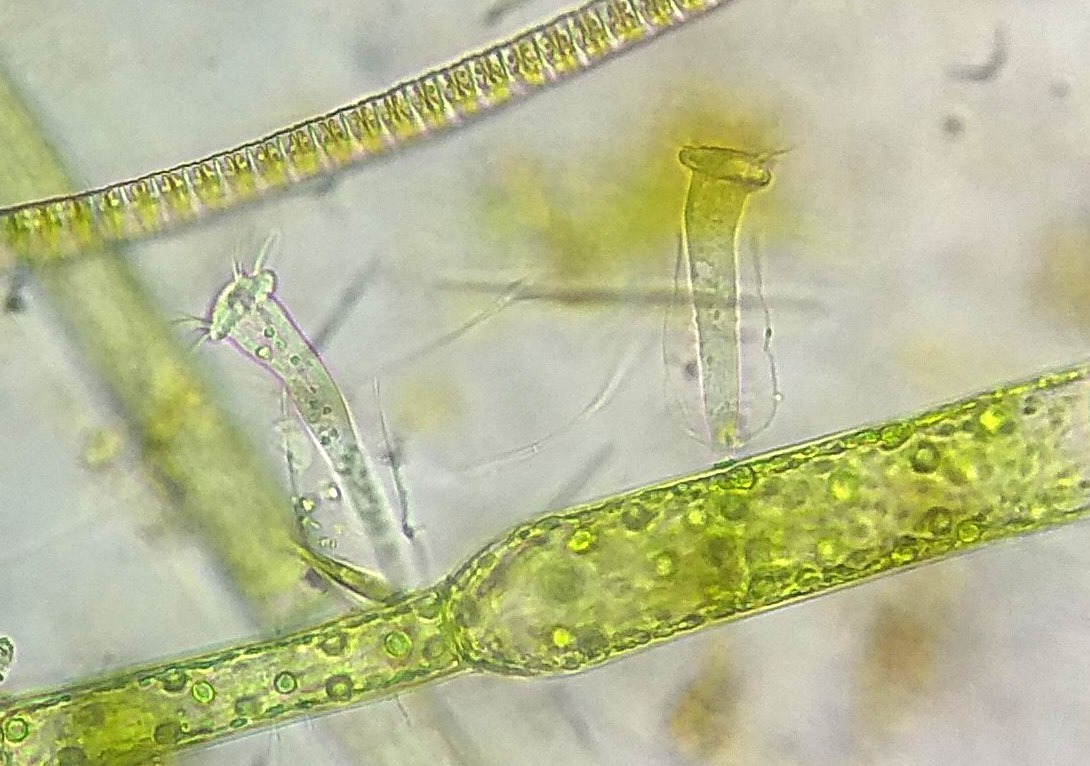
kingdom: Chromista
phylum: Ciliophora
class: Oligohymenophorea
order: Peritrichida
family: Vaginicolidae
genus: Cothurnia
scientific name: Cothurnia annulata
